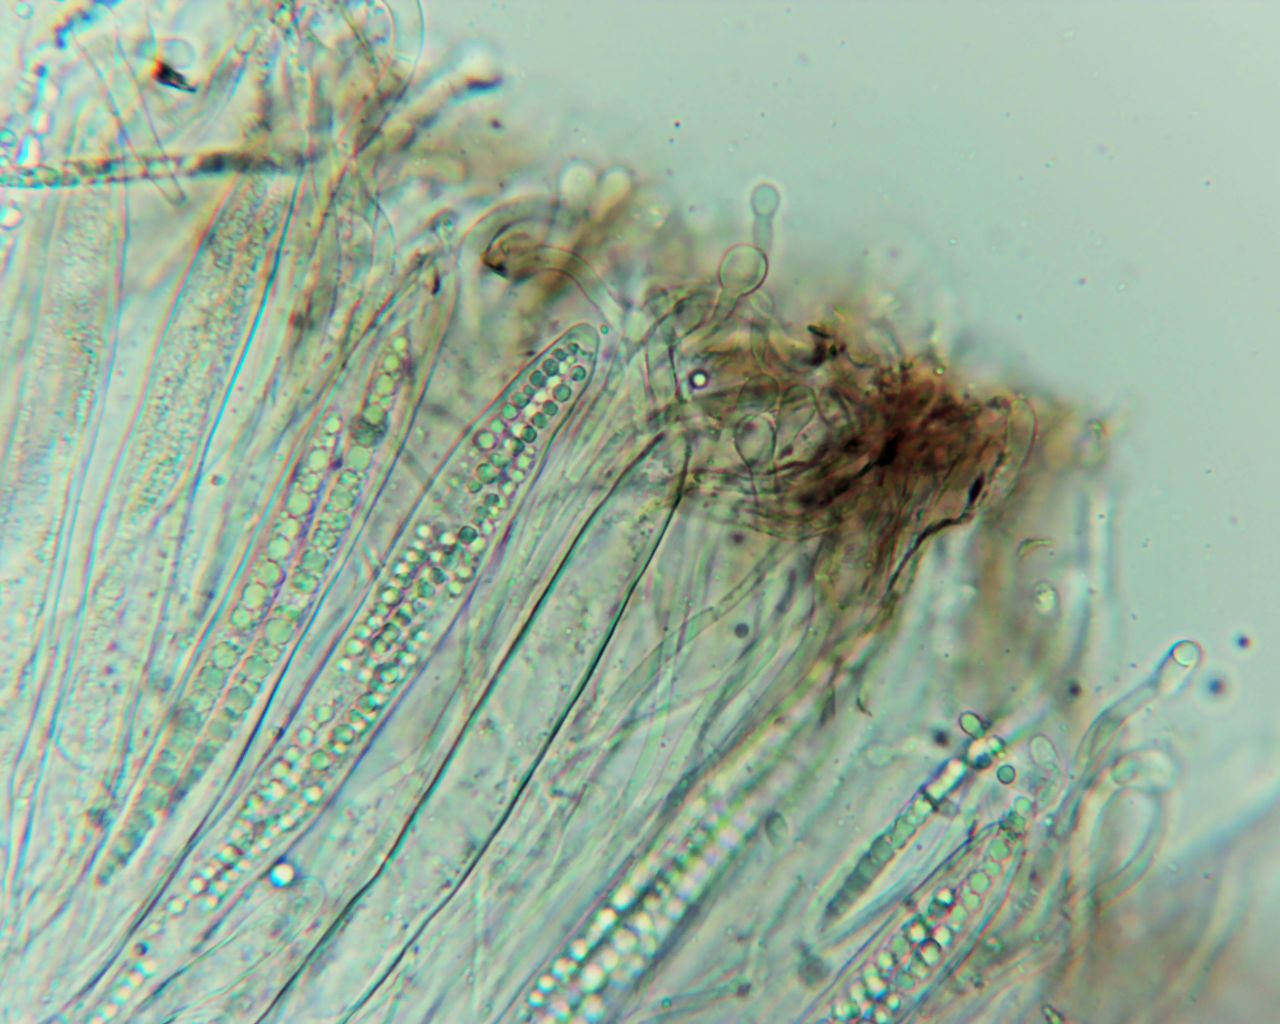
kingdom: Fungi
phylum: Ascomycota
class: Geoglossomycetes
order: Geoglossales
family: Geoglossaceae
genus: Geoglossum
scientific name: Geoglossum
